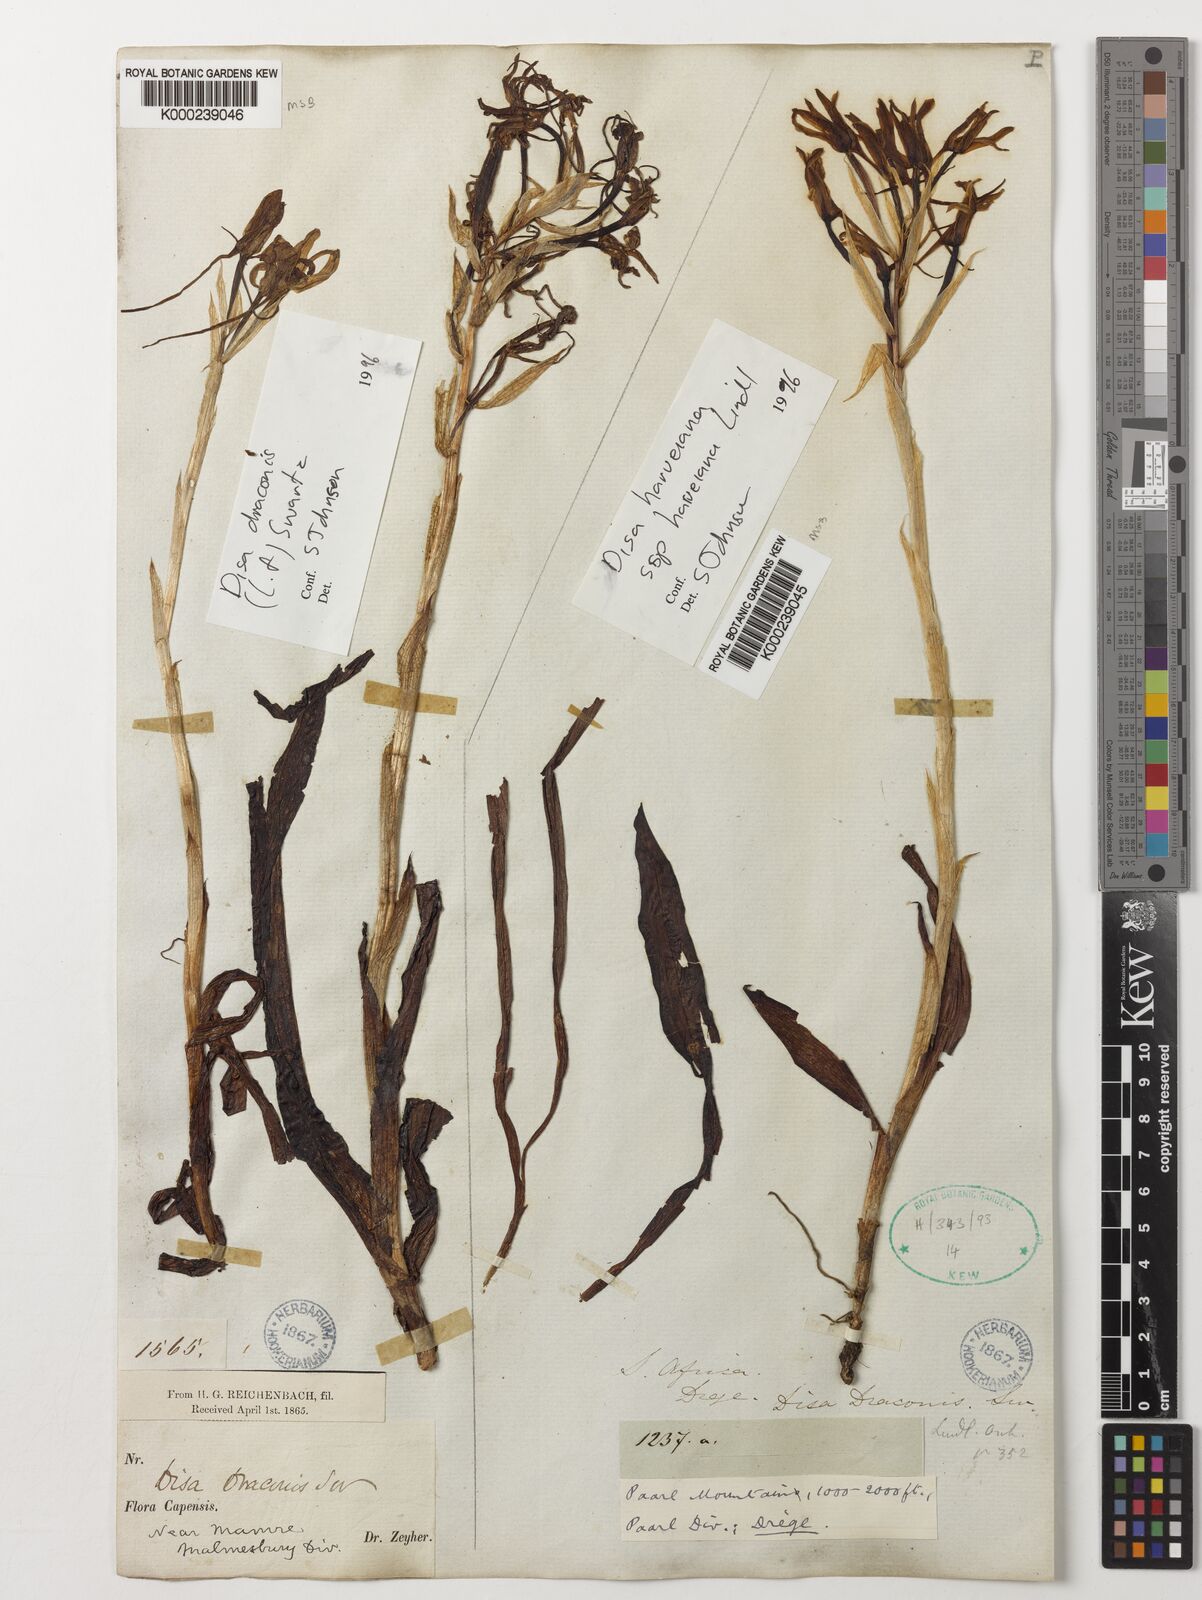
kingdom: Plantae
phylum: Tracheophyta
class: Liliopsida
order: Asparagales
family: Orchidaceae
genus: Disa
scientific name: Disa draconis
